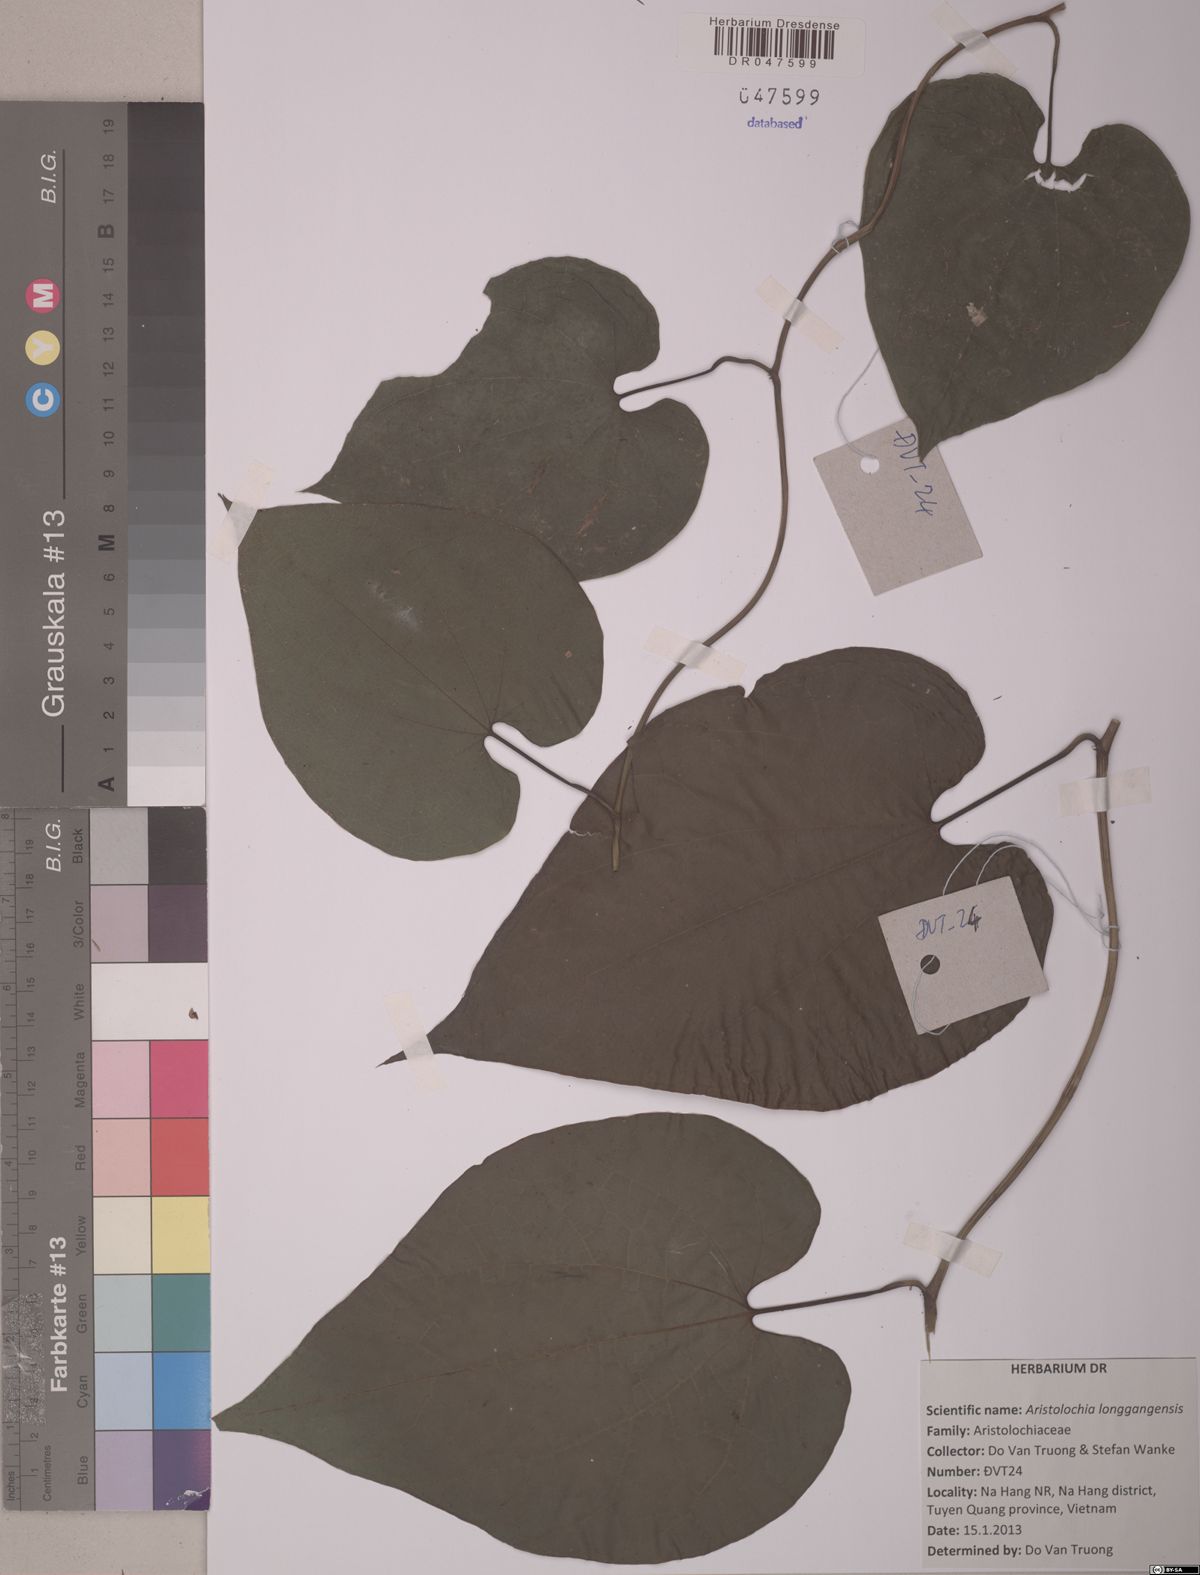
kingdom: Plantae
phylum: Tracheophyta
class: Magnoliopsida
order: Piperales
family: Aristolochiaceae
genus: Aristolochia
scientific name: Aristolochia longgangensis
